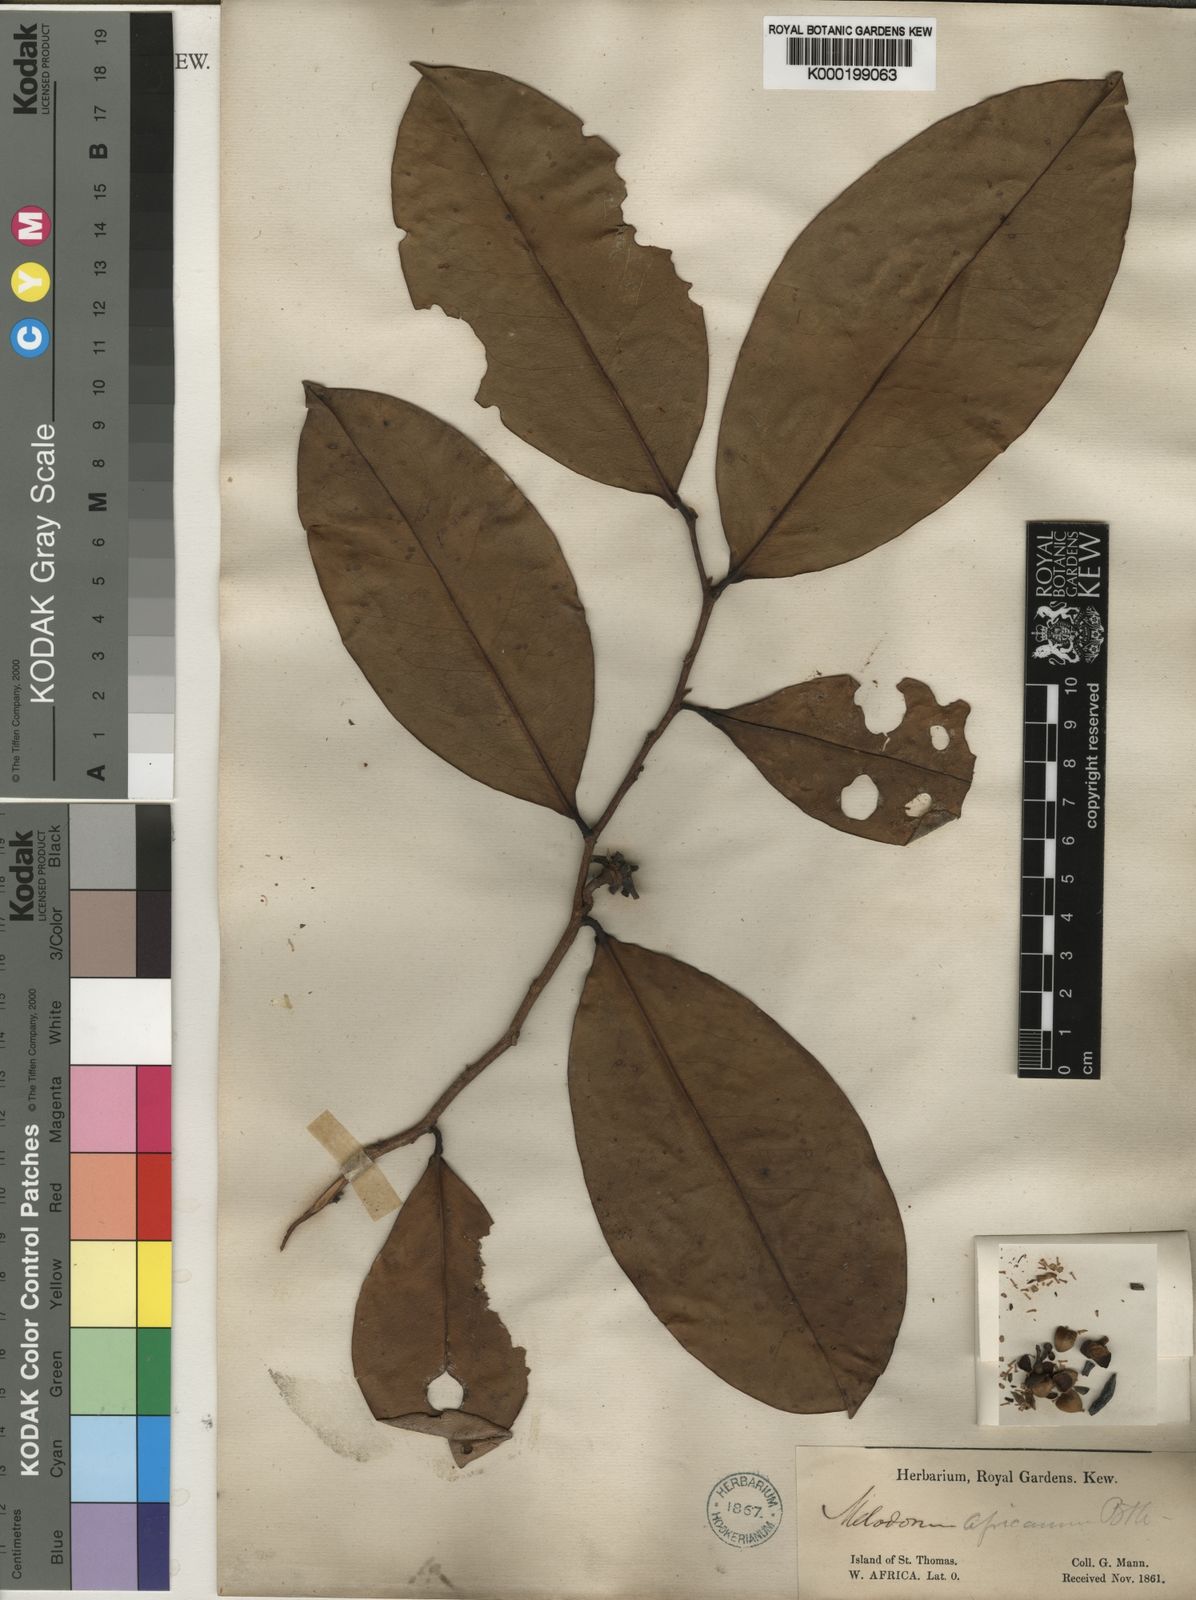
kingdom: Plantae
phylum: Tracheophyta
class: Magnoliopsida
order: Magnoliales
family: Annonaceae
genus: Xylopia
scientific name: Xylopia africana
